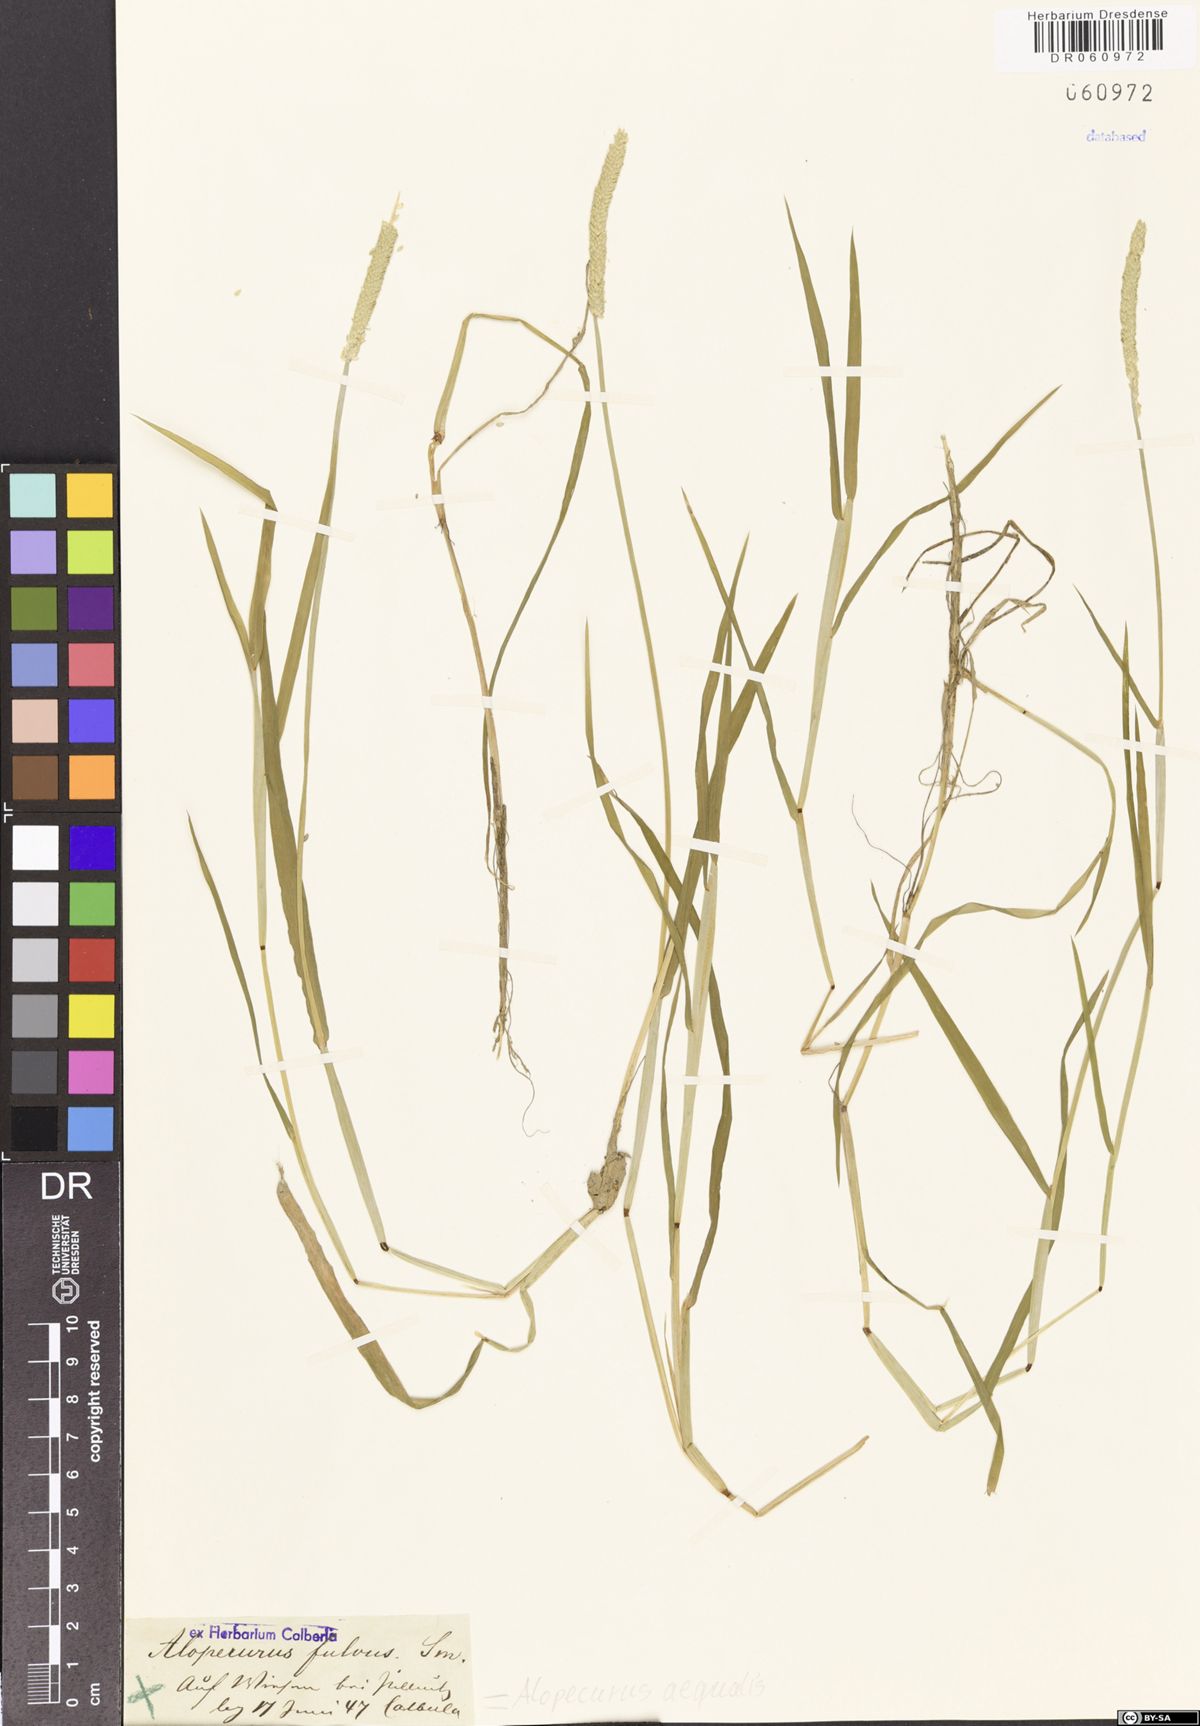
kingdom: Plantae
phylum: Tracheophyta
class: Liliopsida
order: Poales
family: Poaceae
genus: Alopecurus
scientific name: Alopecurus aequalis
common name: Orange foxtail
